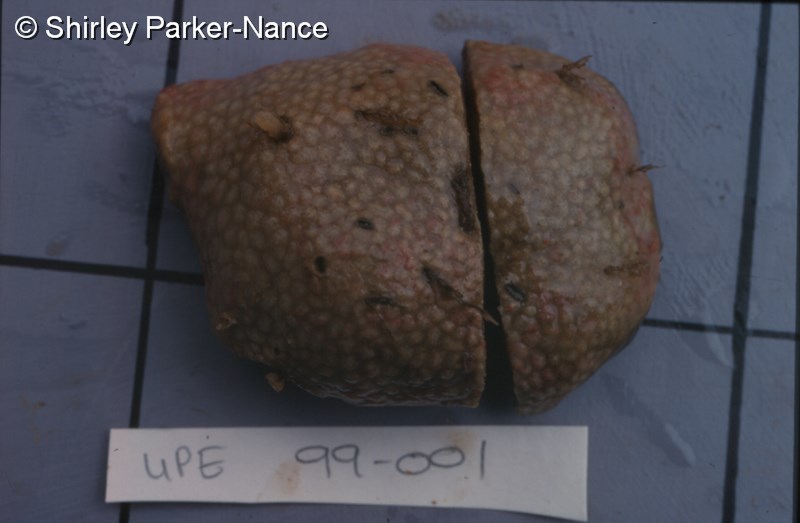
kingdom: Animalia
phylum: Chordata
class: Ascidiacea
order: Aplousobranchia
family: Polyclinidae
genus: Aplidium
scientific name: Aplidium flavolineatum
